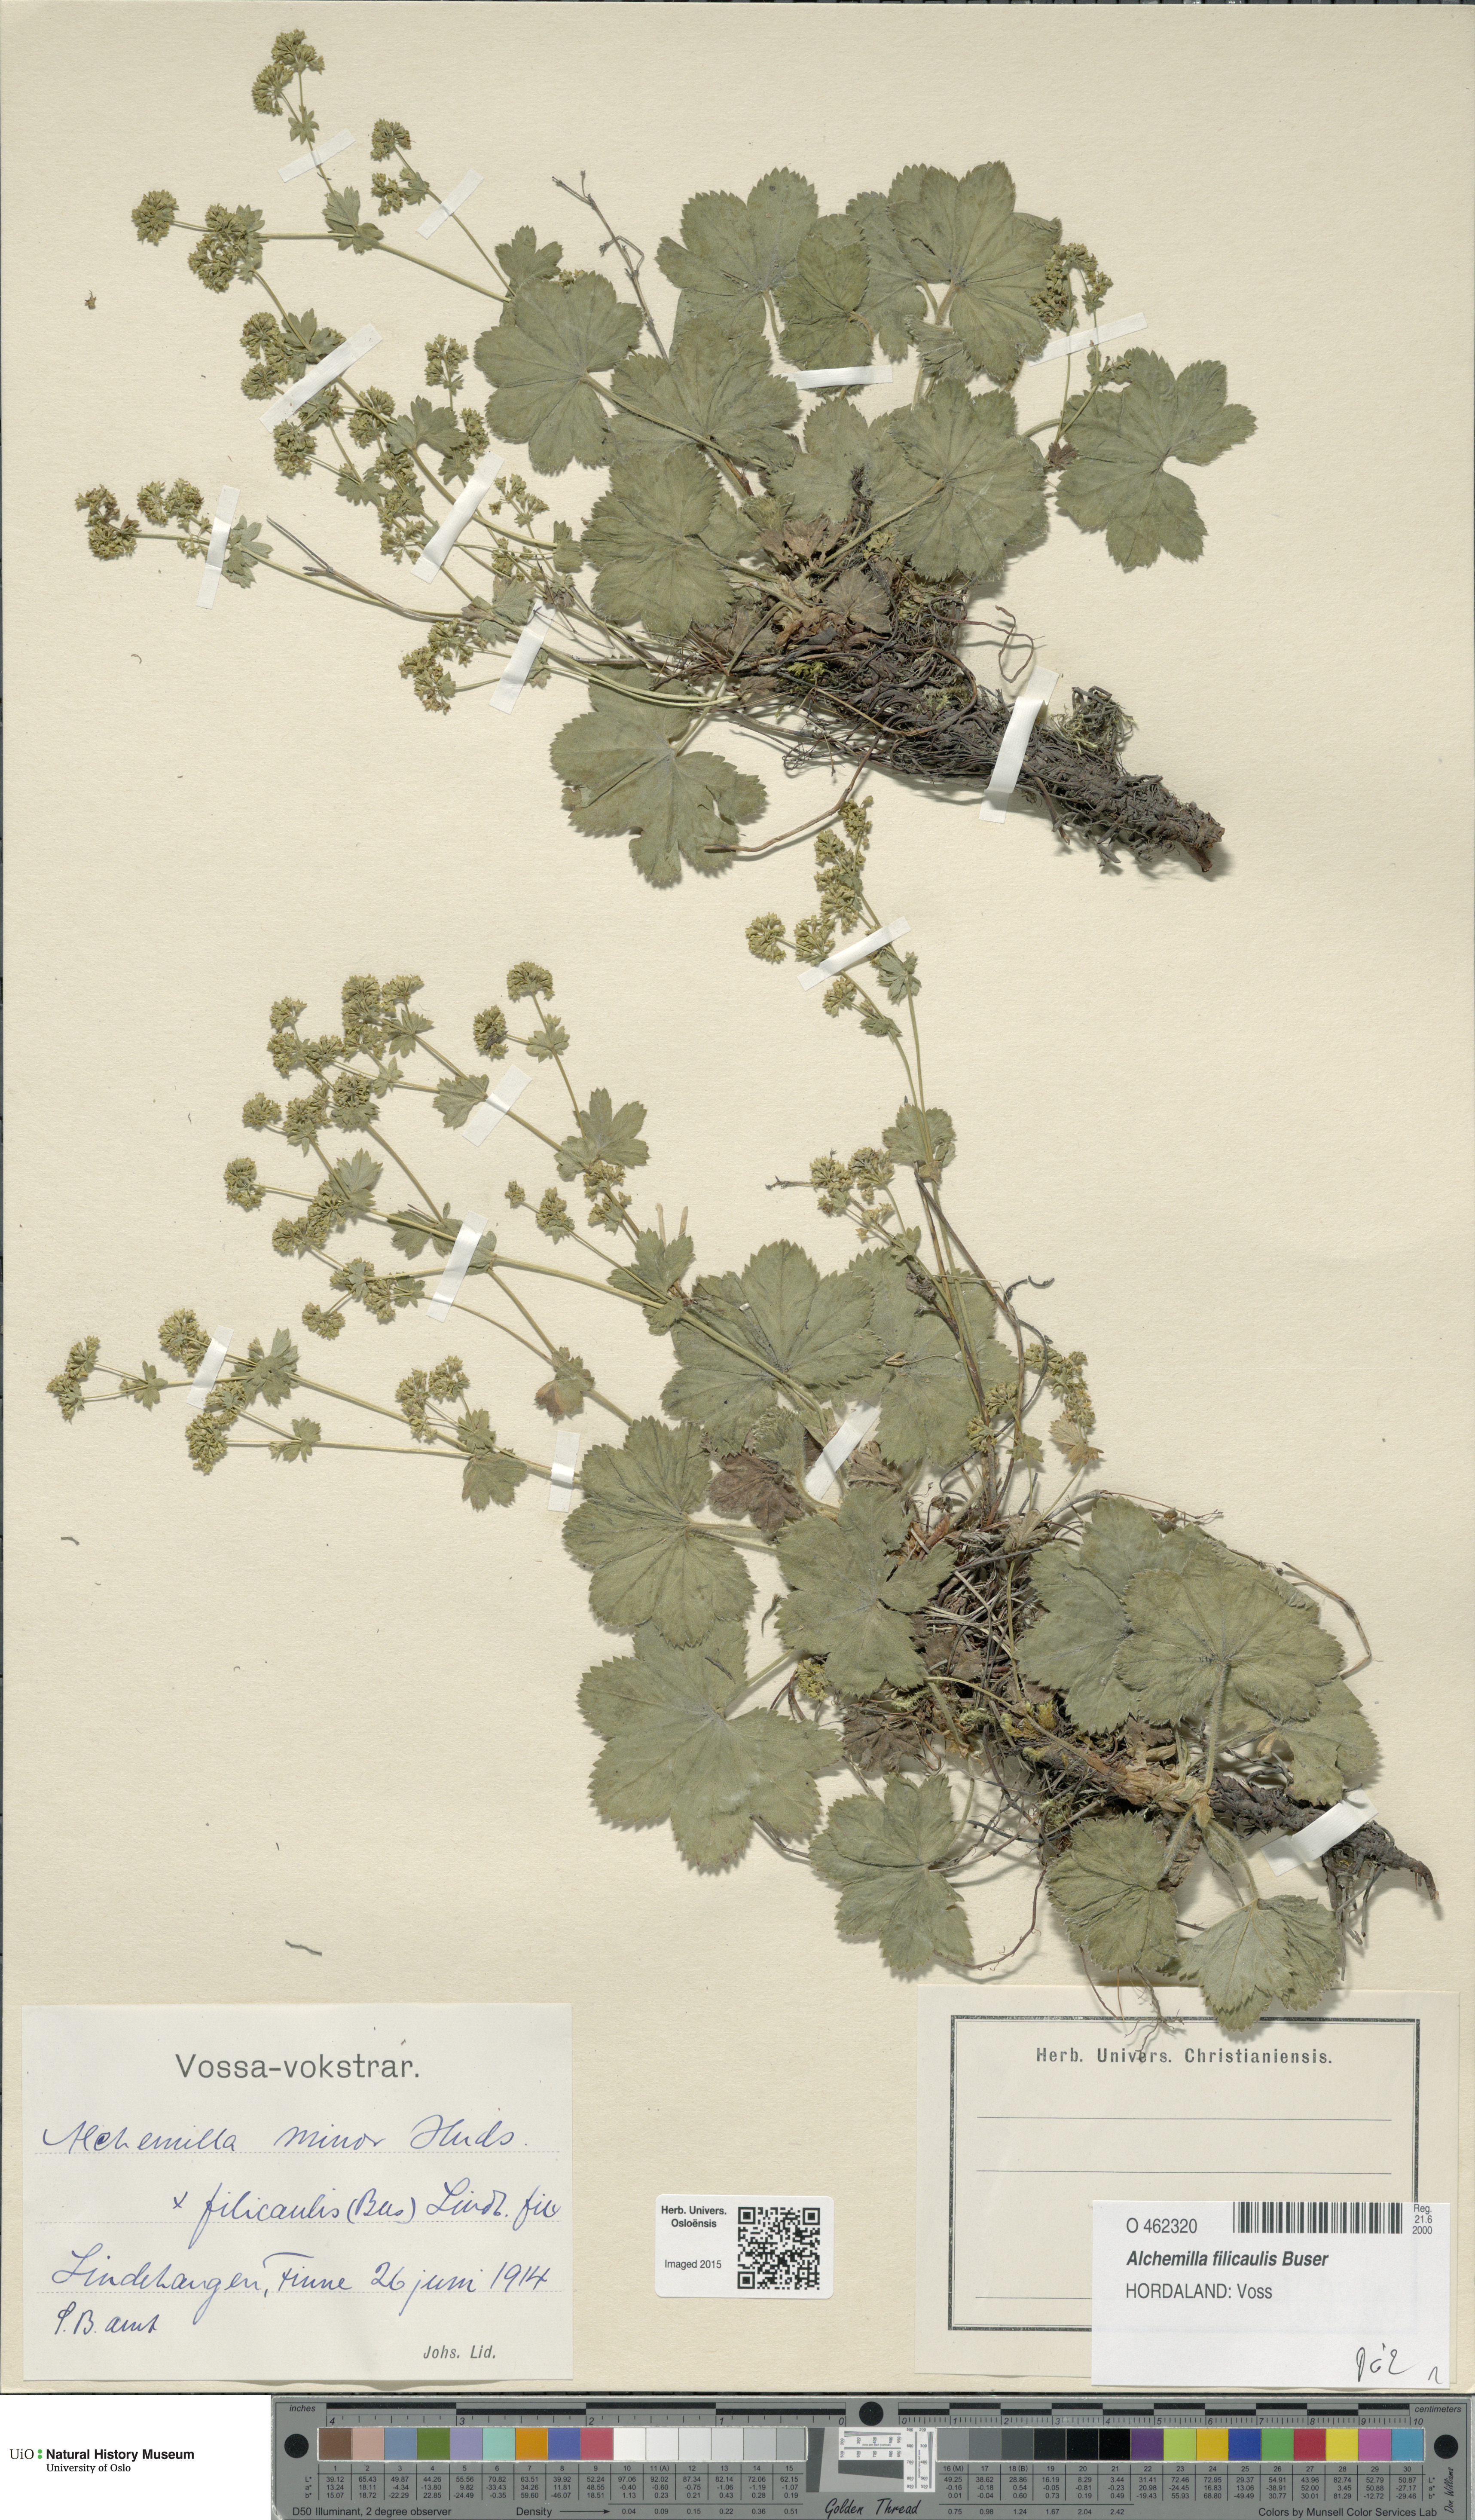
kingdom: Plantae
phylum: Tracheophyta
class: Magnoliopsida
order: Rosales
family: Rosaceae
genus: Alchemilla
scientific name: Alchemilla filicaulis
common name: Hairy lady's-mantle
